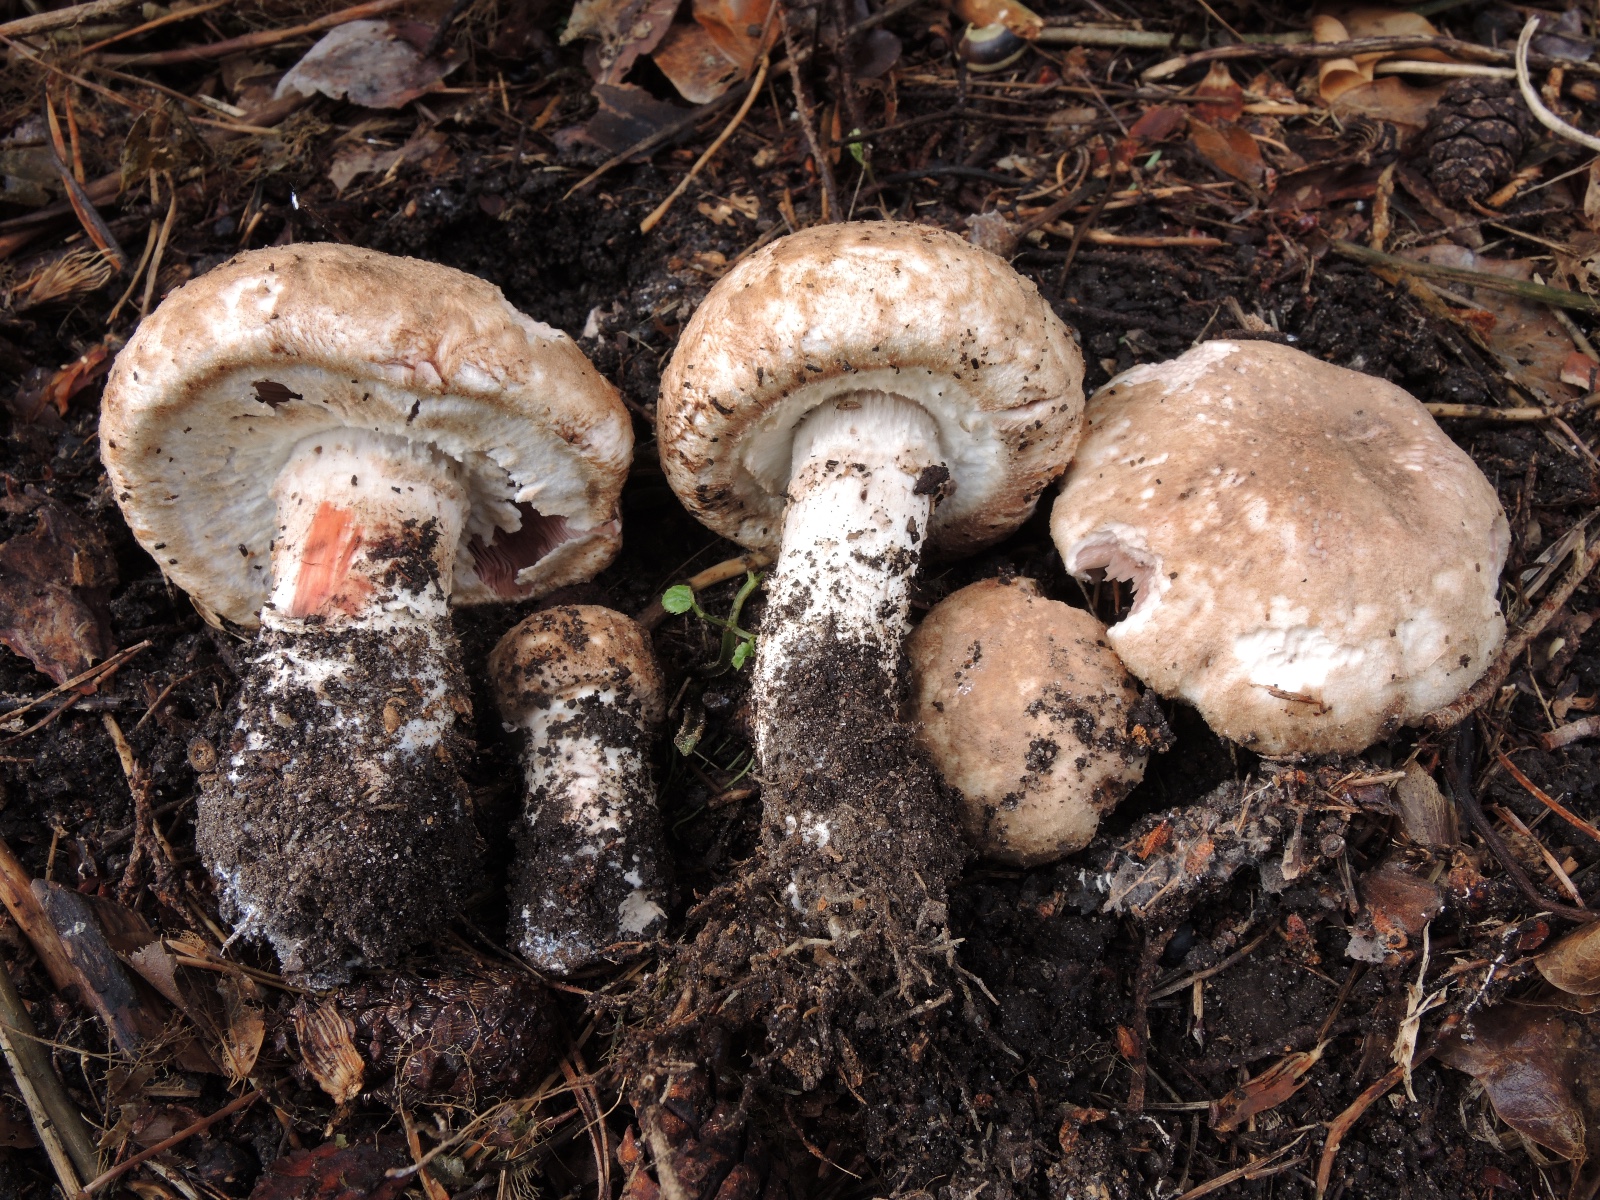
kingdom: Fungi
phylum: Basidiomycota
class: Agaricomycetes
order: Agaricales
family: Agaricaceae
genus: Agaricus
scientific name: Agaricus coniferarum
